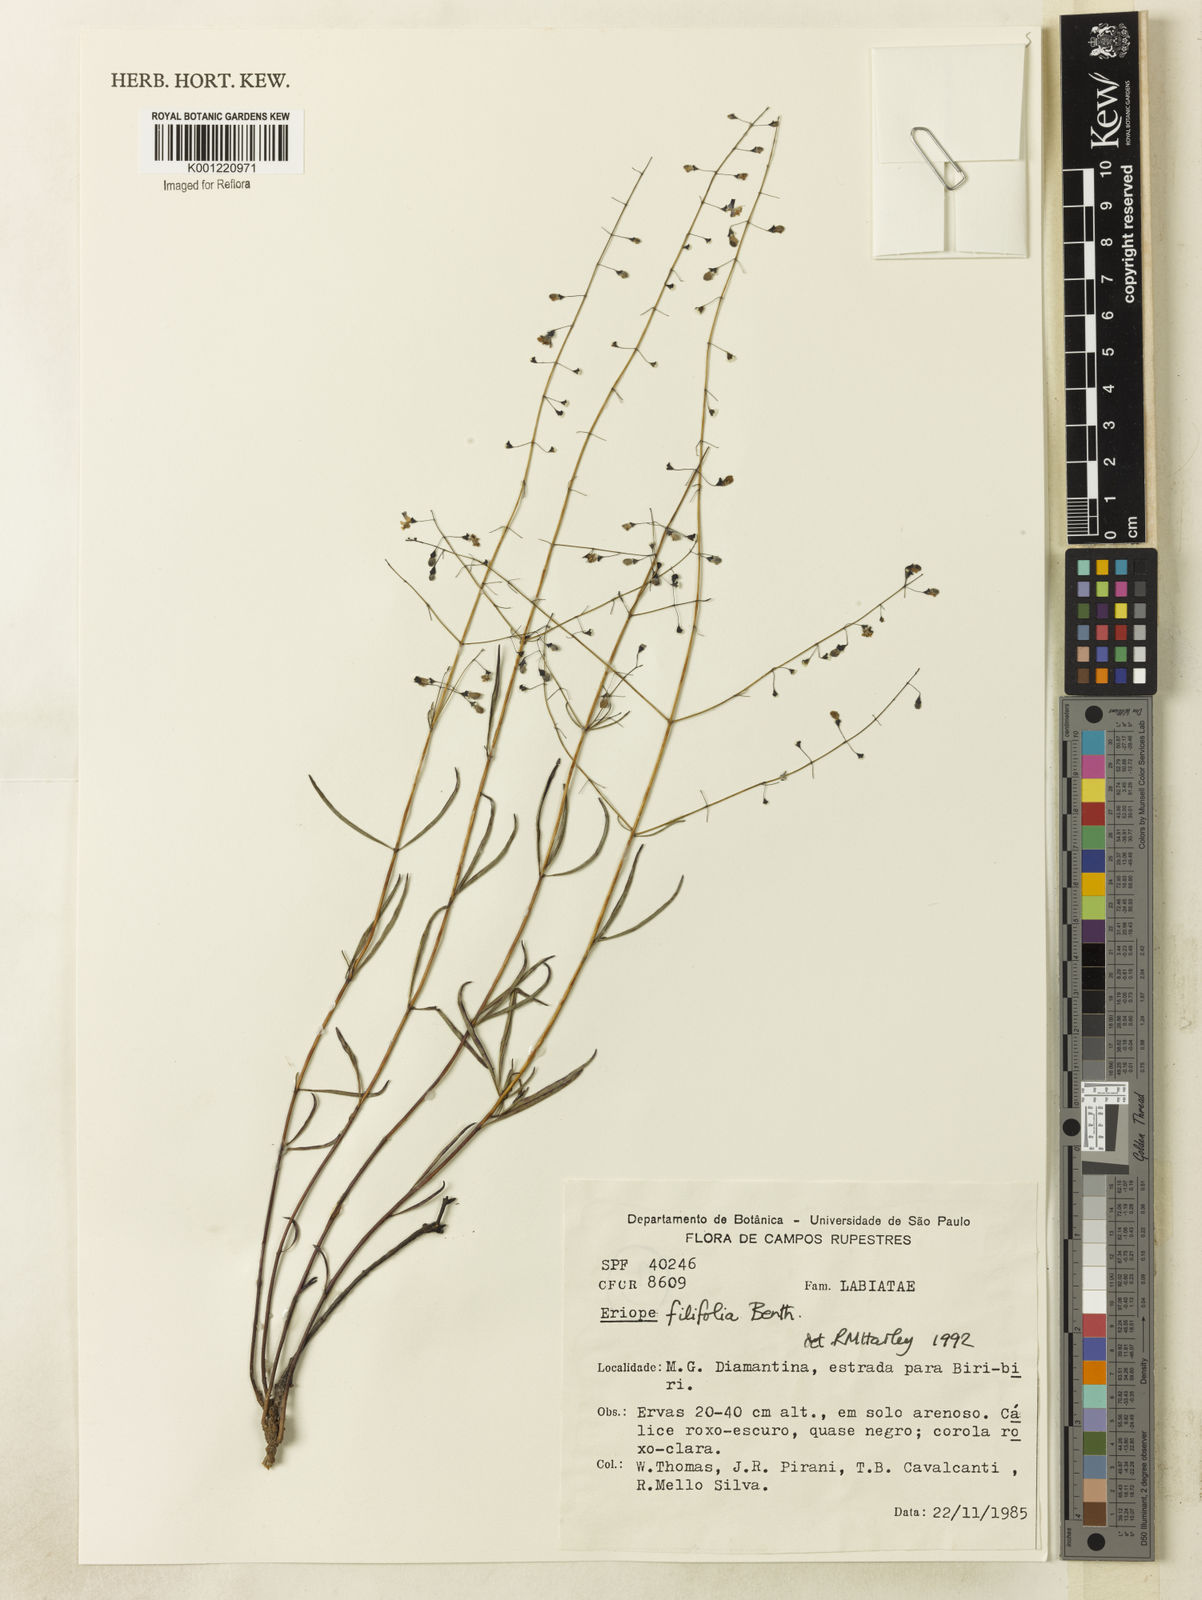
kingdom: Plantae
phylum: Tracheophyta
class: Magnoliopsida
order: Lamiales
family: Lamiaceae
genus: Eriope
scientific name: Eriope filifolia
